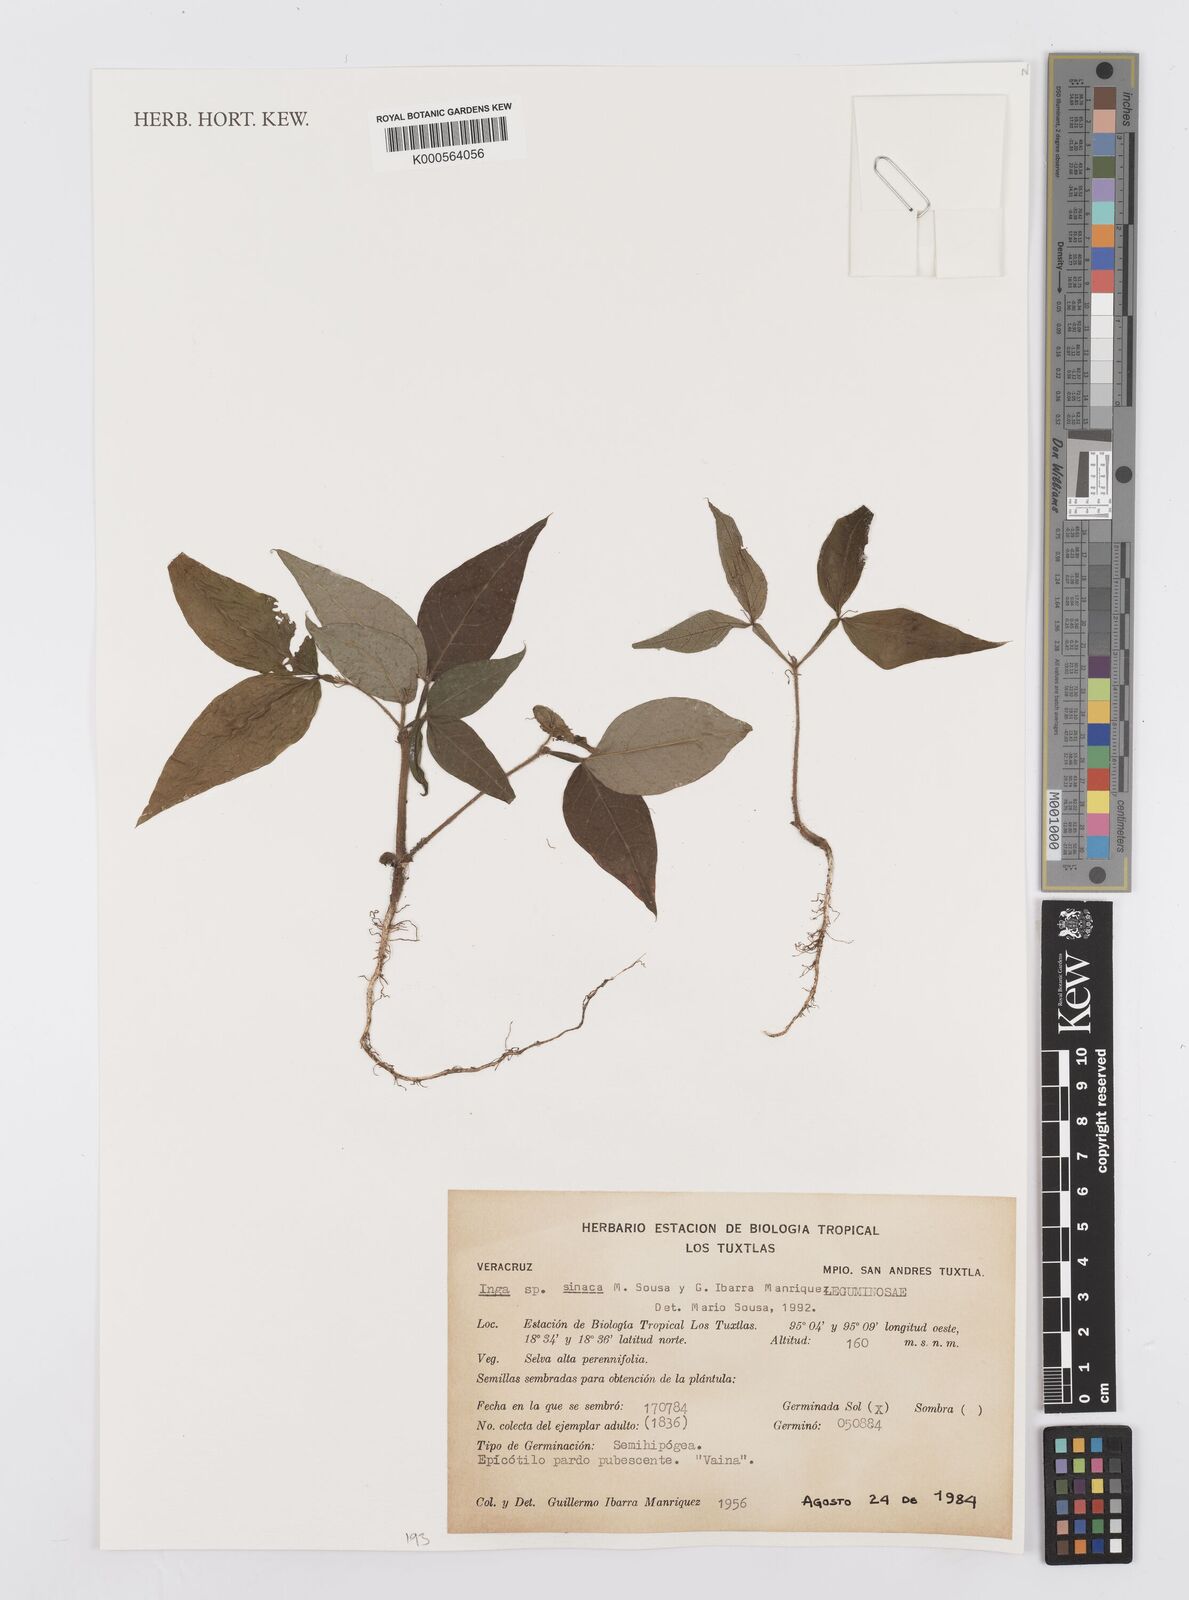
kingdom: Plantae
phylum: Tracheophyta
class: Magnoliopsida
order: Fabales
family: Fabaceae
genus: Inga
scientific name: Inga sinacae
